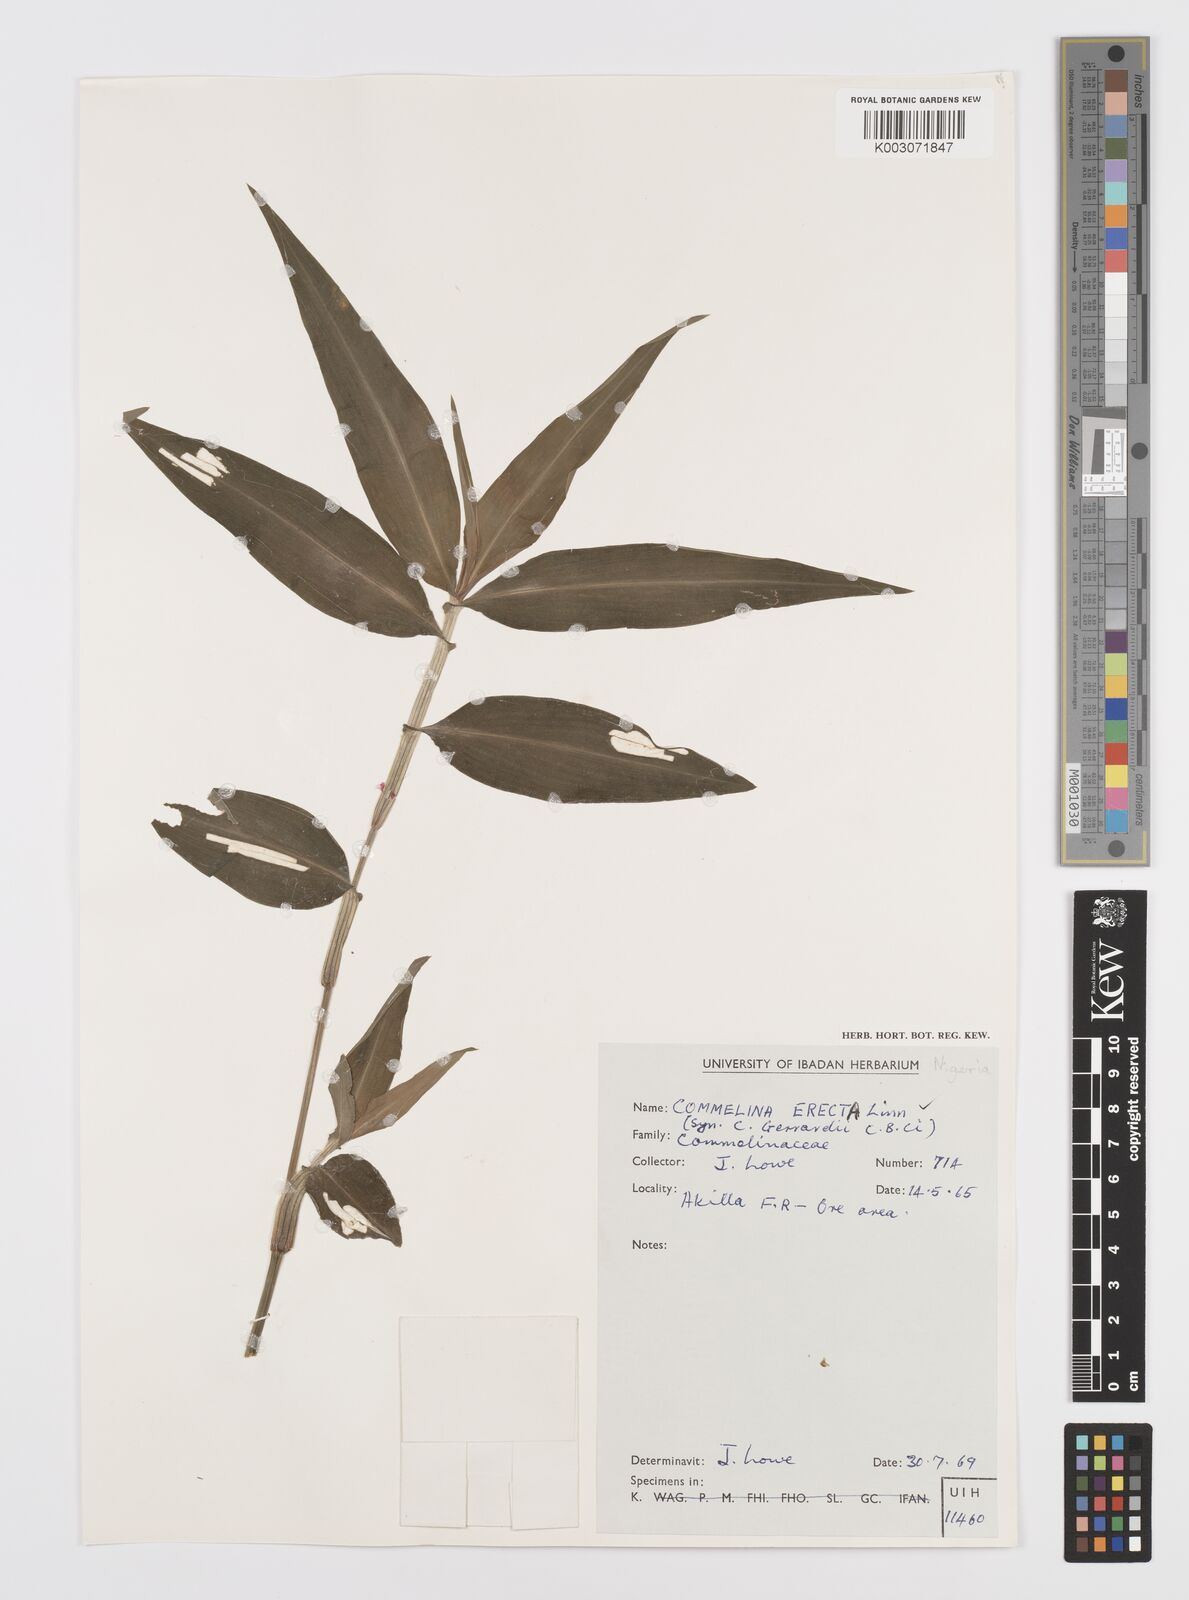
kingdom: Plantae
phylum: Tracheophyta
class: Liliopsida
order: Commelinales
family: Commelinaceae
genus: Commelina
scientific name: Commelina erecta
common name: Blousel blommetjie
